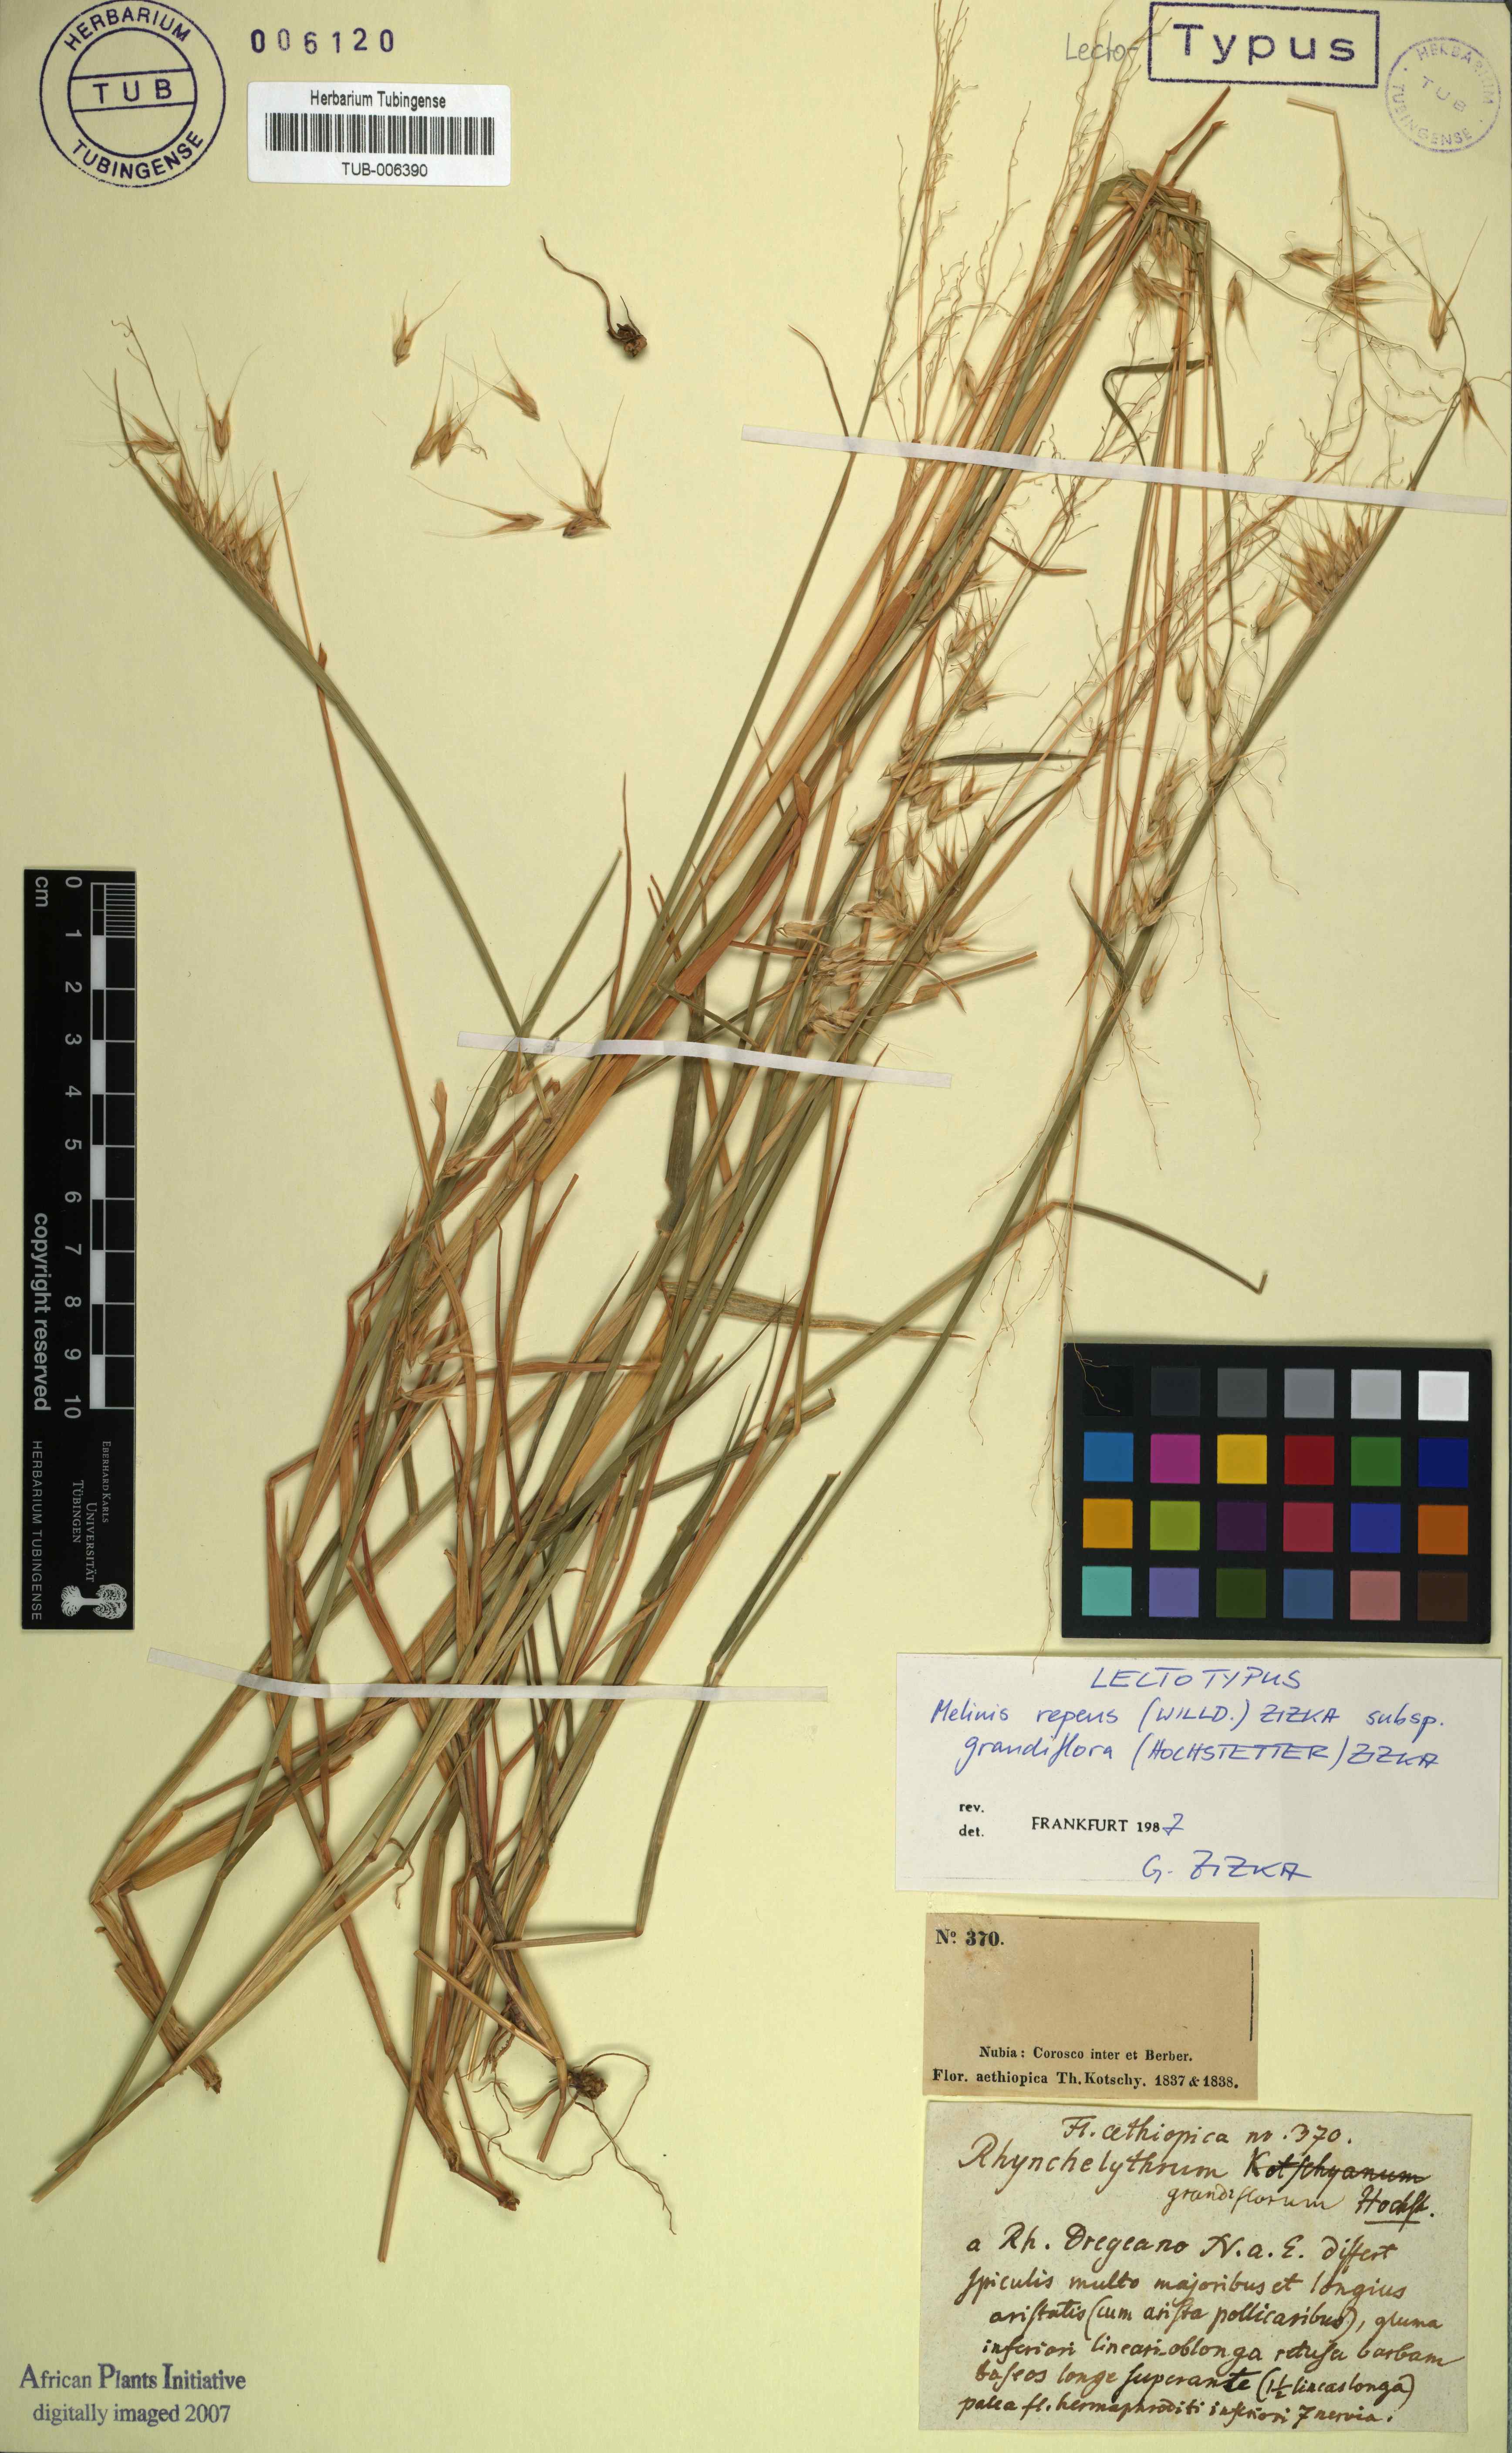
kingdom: Plantae
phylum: Tracheophyta
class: Liliopsida
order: Poales
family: Poaceae
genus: Melinis
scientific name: Melinis repens
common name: Rose natal grass
